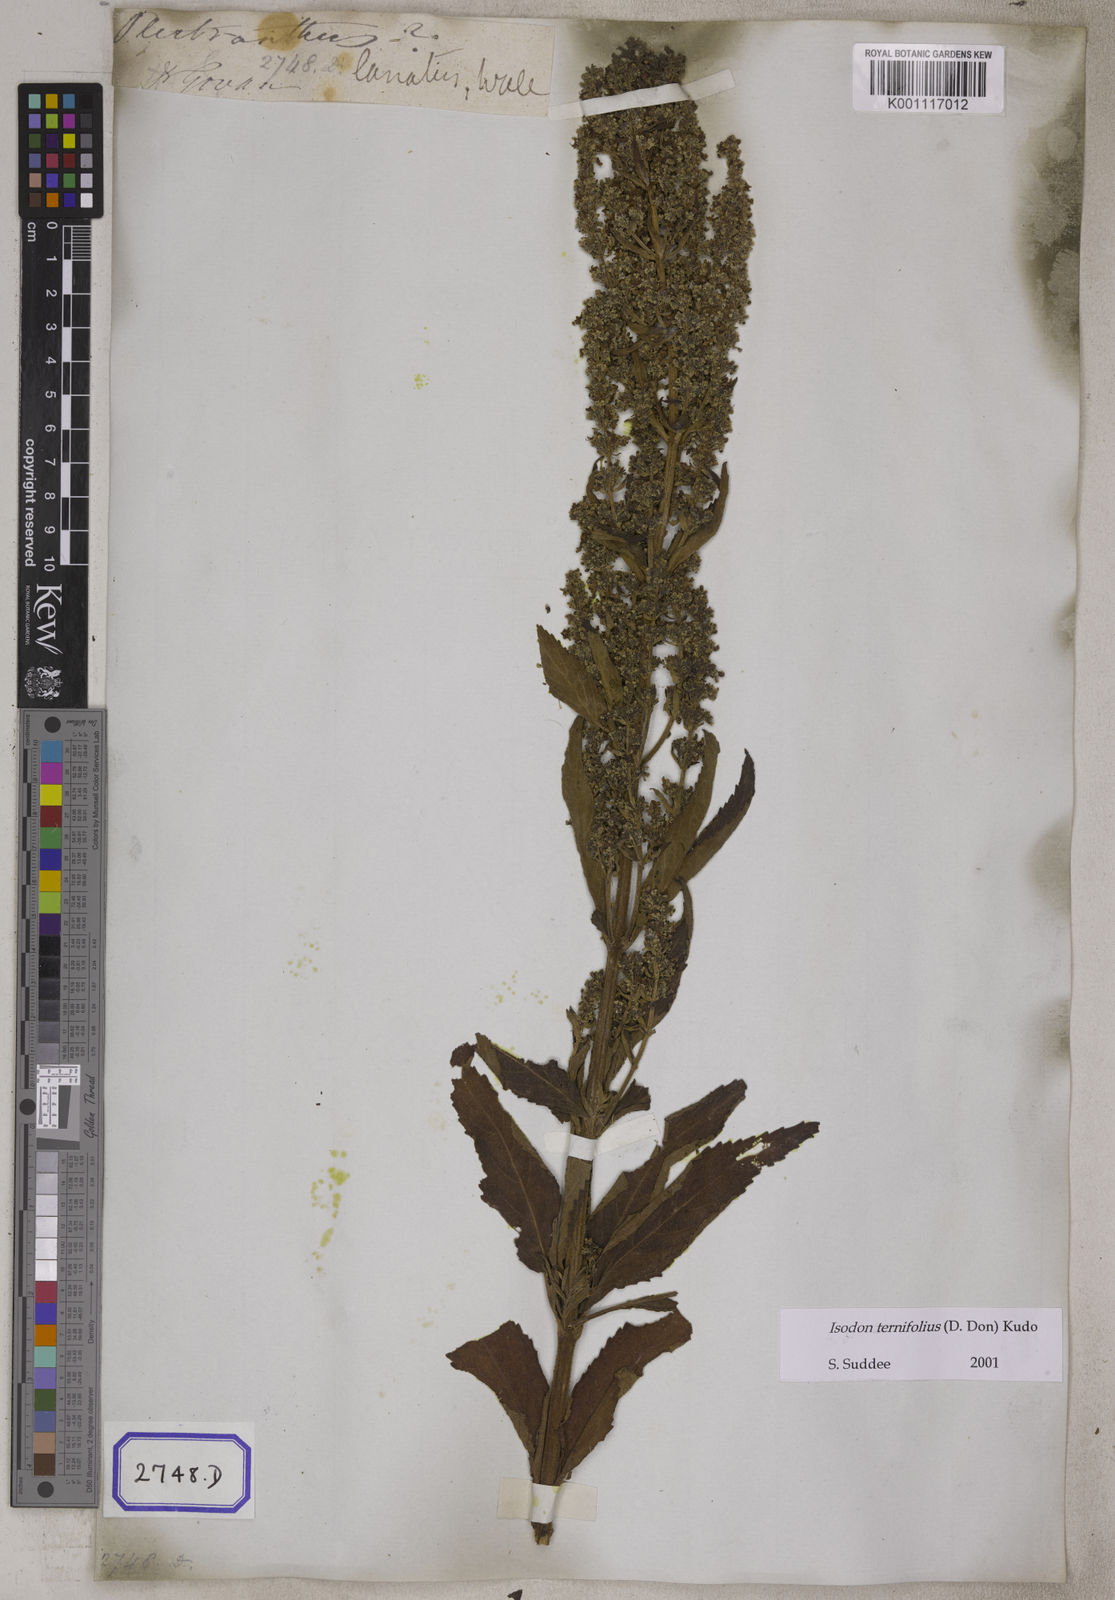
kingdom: Plantae
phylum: Tracheophyta
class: Magnoliopsida
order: Lamiales
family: Lamiaceae
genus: Isodon
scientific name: Isodon ternifolius
